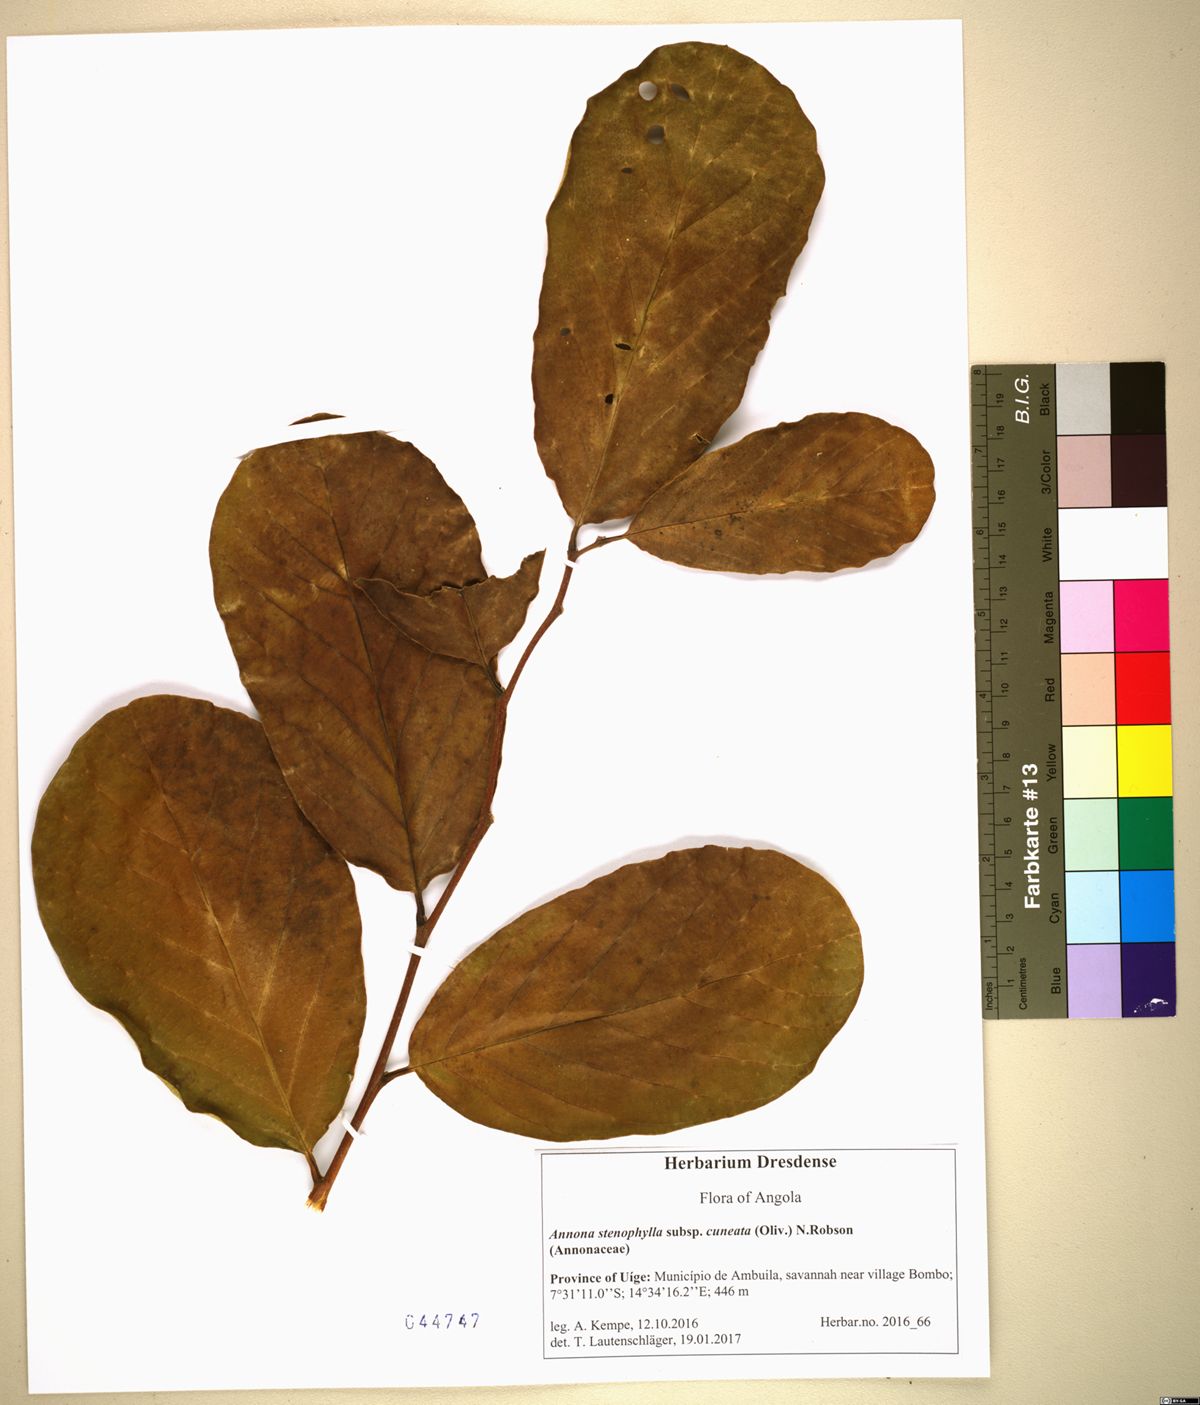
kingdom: Plantae
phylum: Tracheophyta
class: Magnoliopsida
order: Magnoliales
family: Annonaceae
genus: Annona
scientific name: Annona stenophylla
